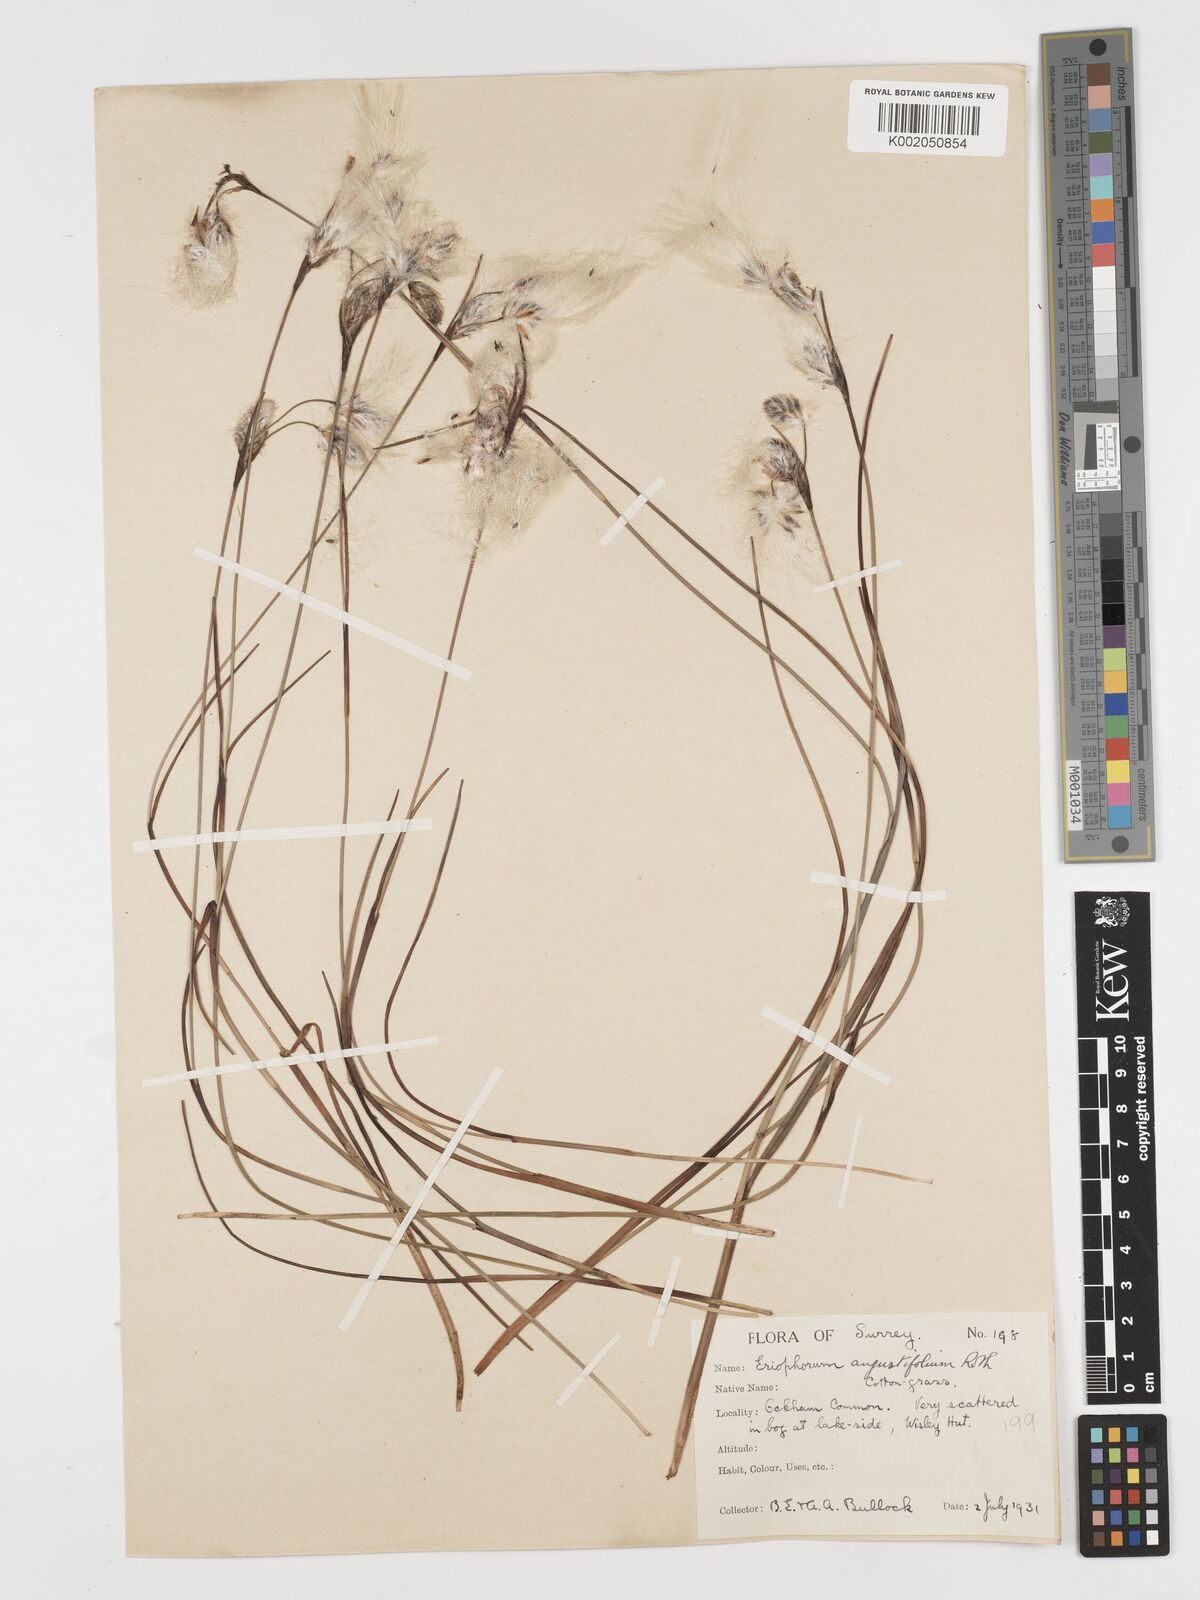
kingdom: Plantae
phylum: Tracheophyta
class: Liliopsida
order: Poales
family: Cyperaceae
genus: Eriophorum
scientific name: Eriophorum angustifolium
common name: Common cottongrass
